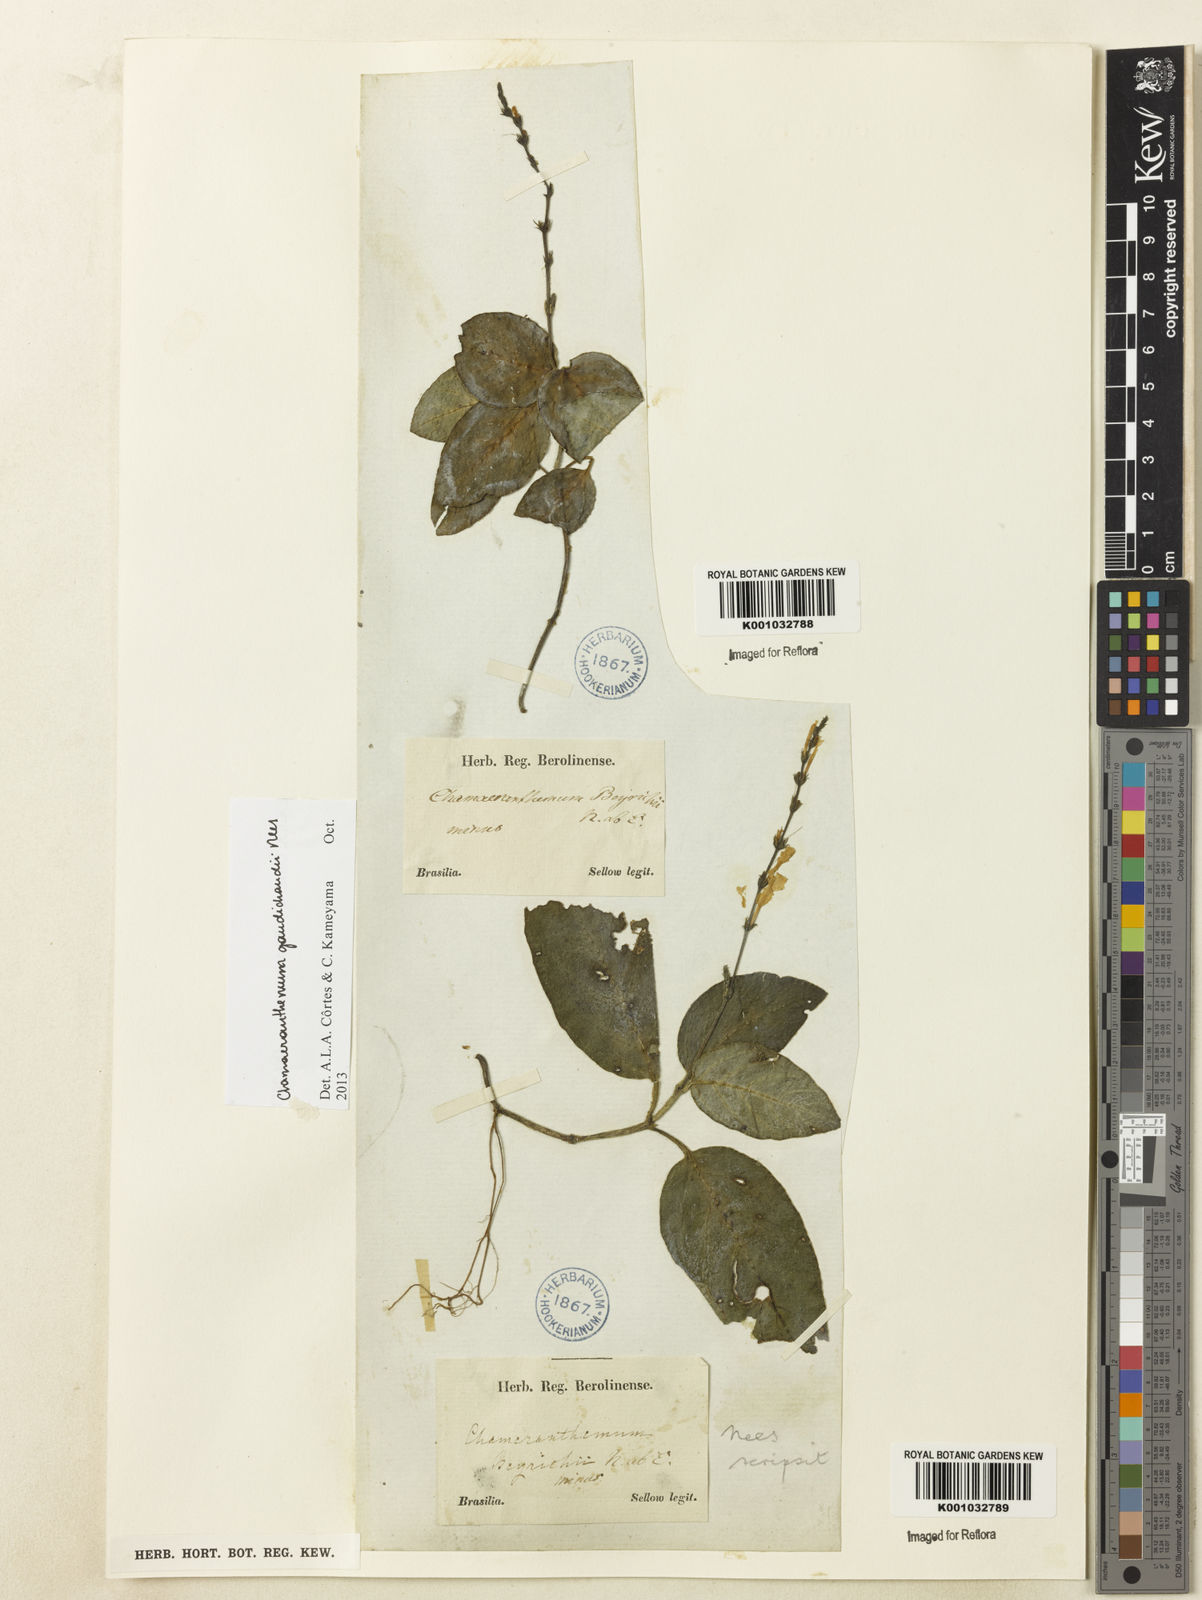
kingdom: Plantae
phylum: Tracheophyta
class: Magnoliopsida
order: Lamiales
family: Acanthaceae
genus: Chamaeranthemum
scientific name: Chamaeranthemum beyrichii
